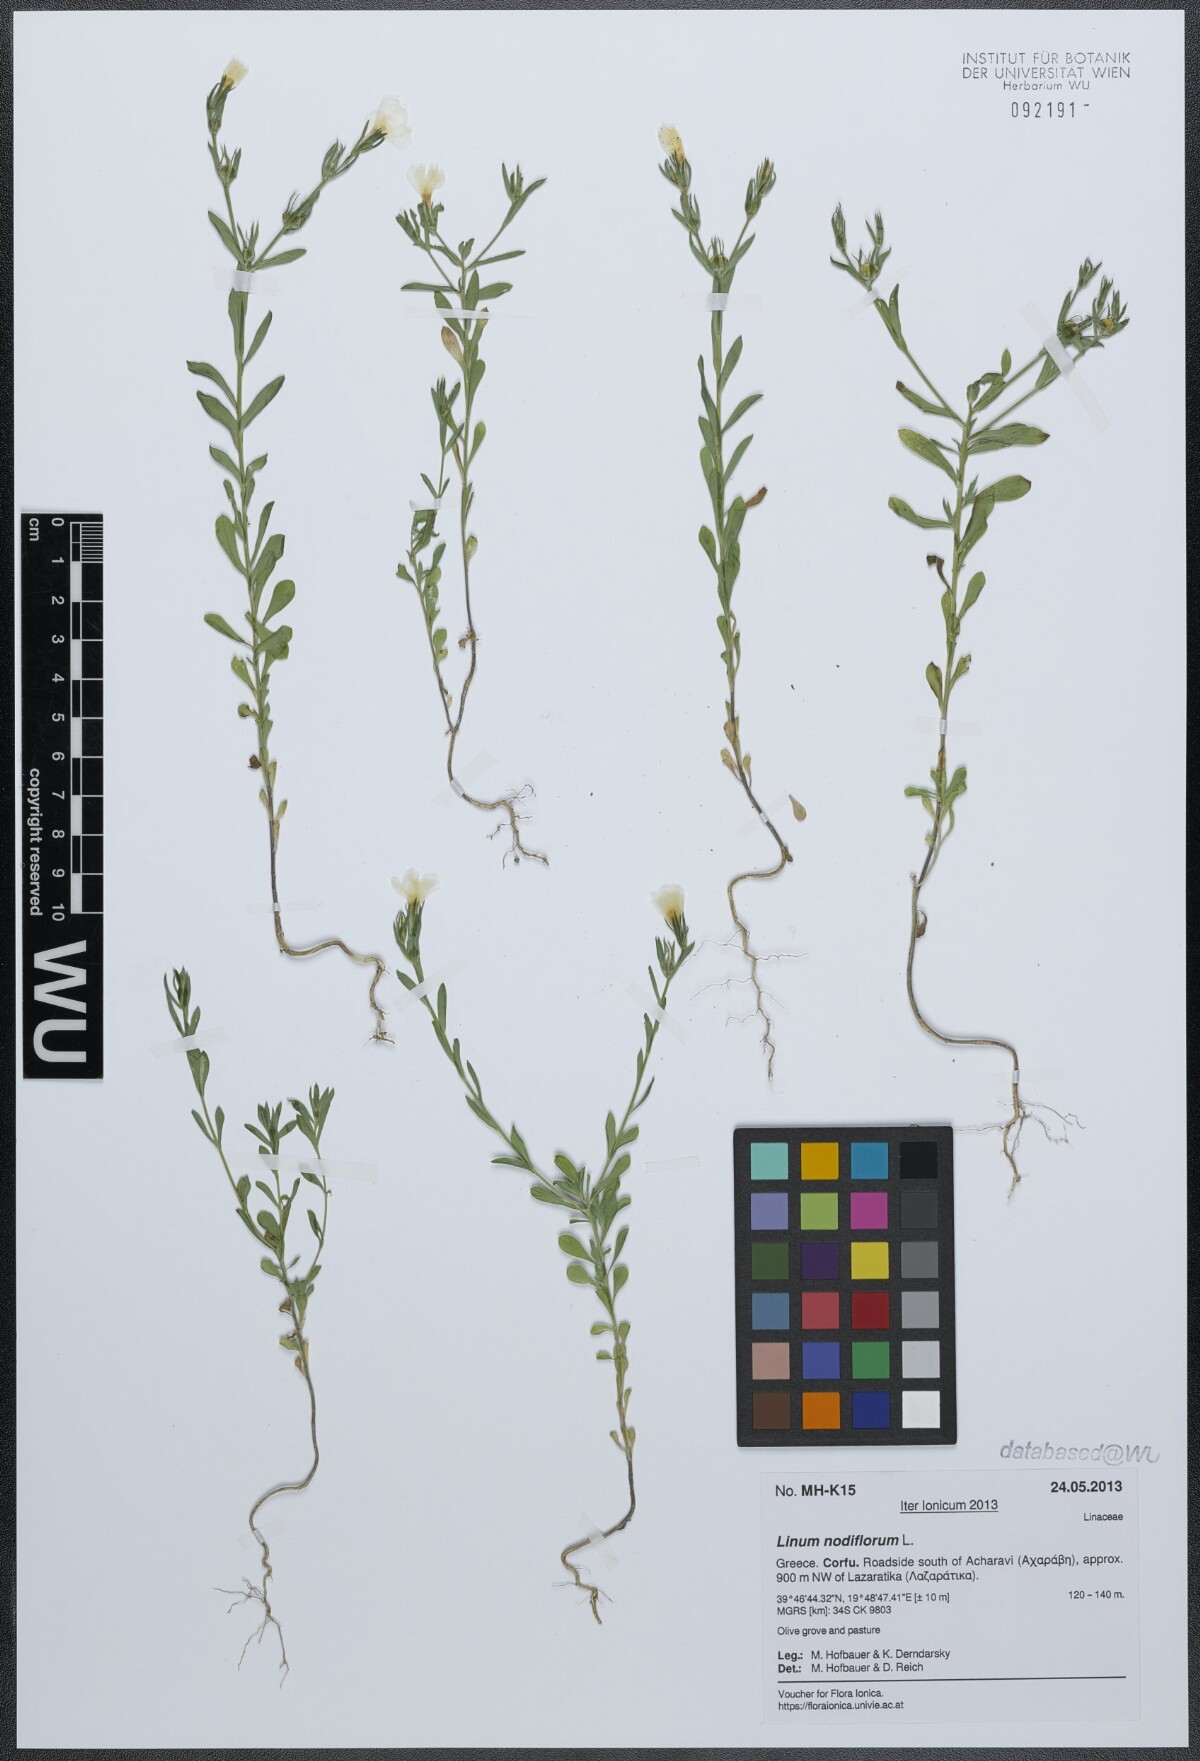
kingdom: Plantae
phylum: Tracheophyta
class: Magnoliopsida
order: Malpighiales
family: Linaceae
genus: Linum
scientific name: Linum nodiflorum
